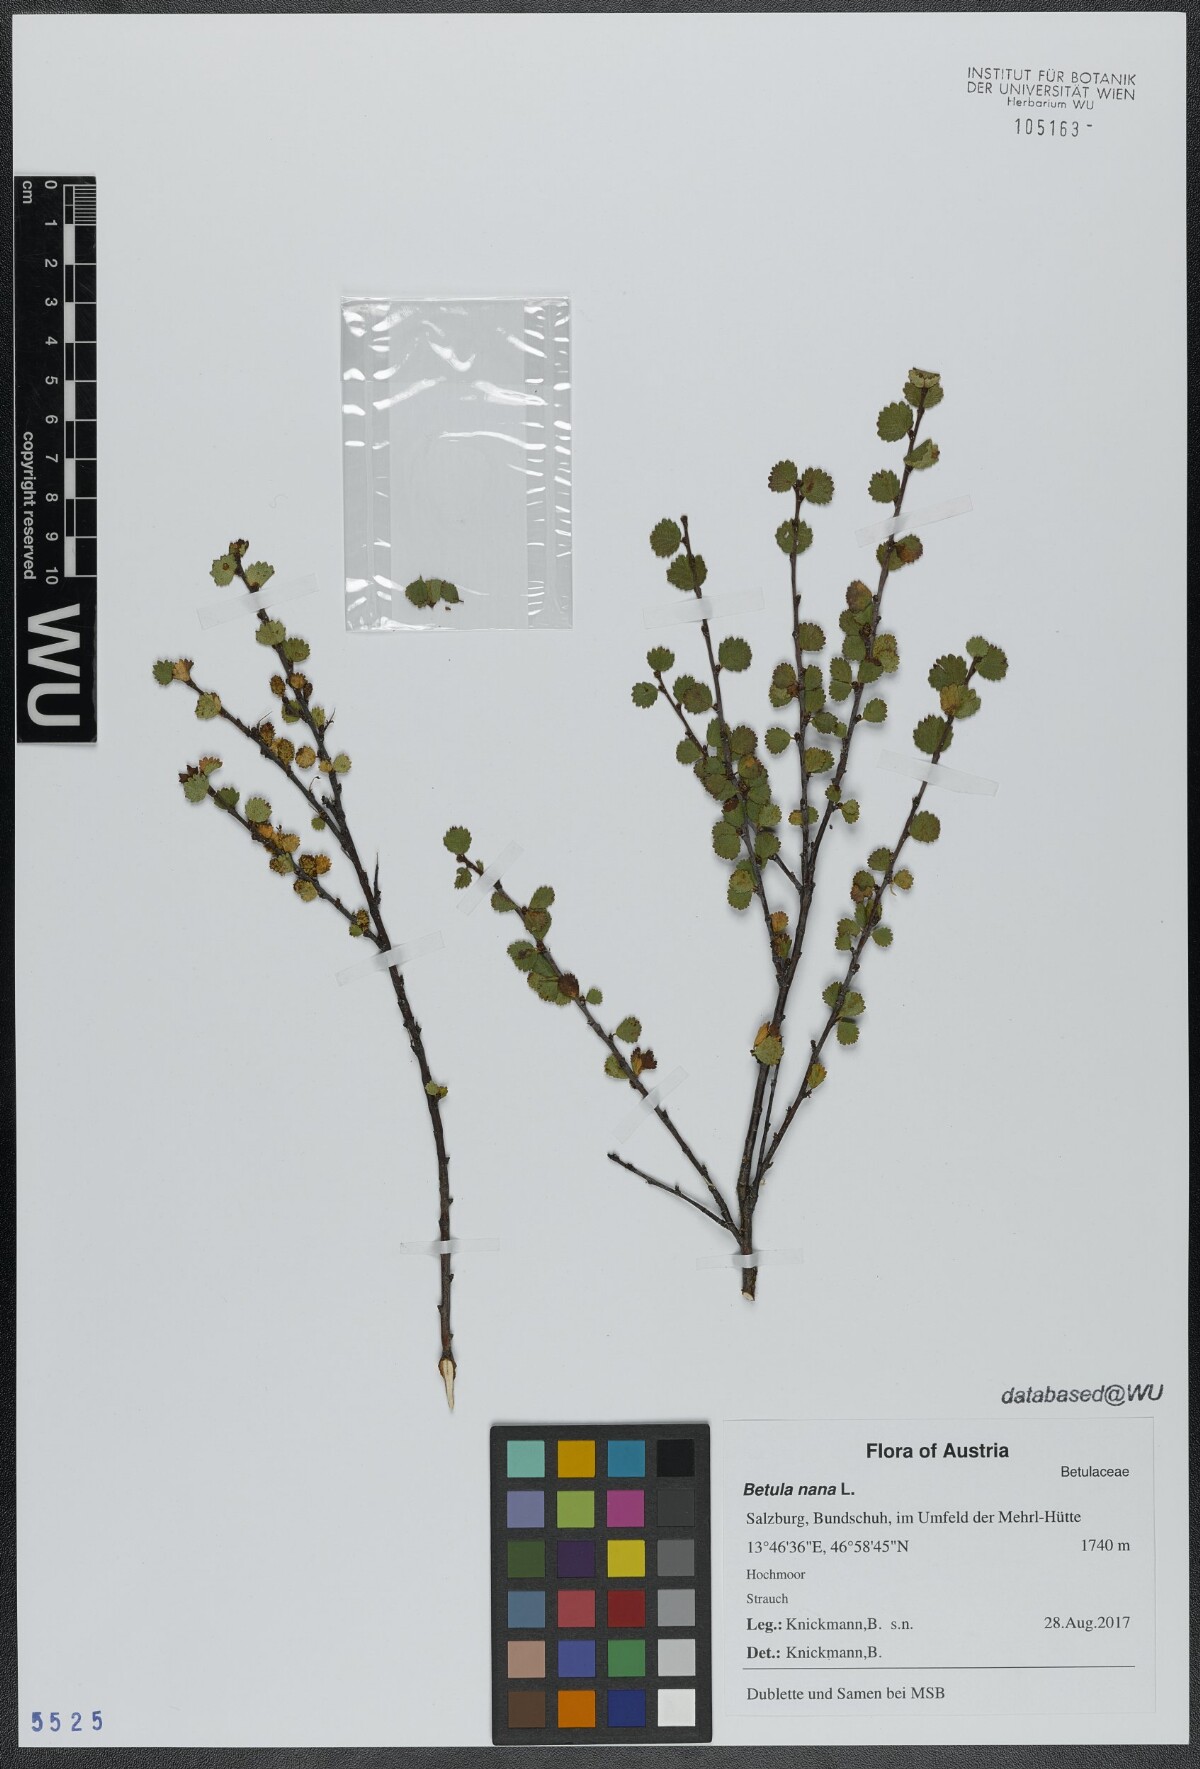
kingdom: Plantae
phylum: Tracheophyta
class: Magnoliopsida
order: Fagales
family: Betulaceae
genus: Betula
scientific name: Betula nana
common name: Arctic dwarf birch
